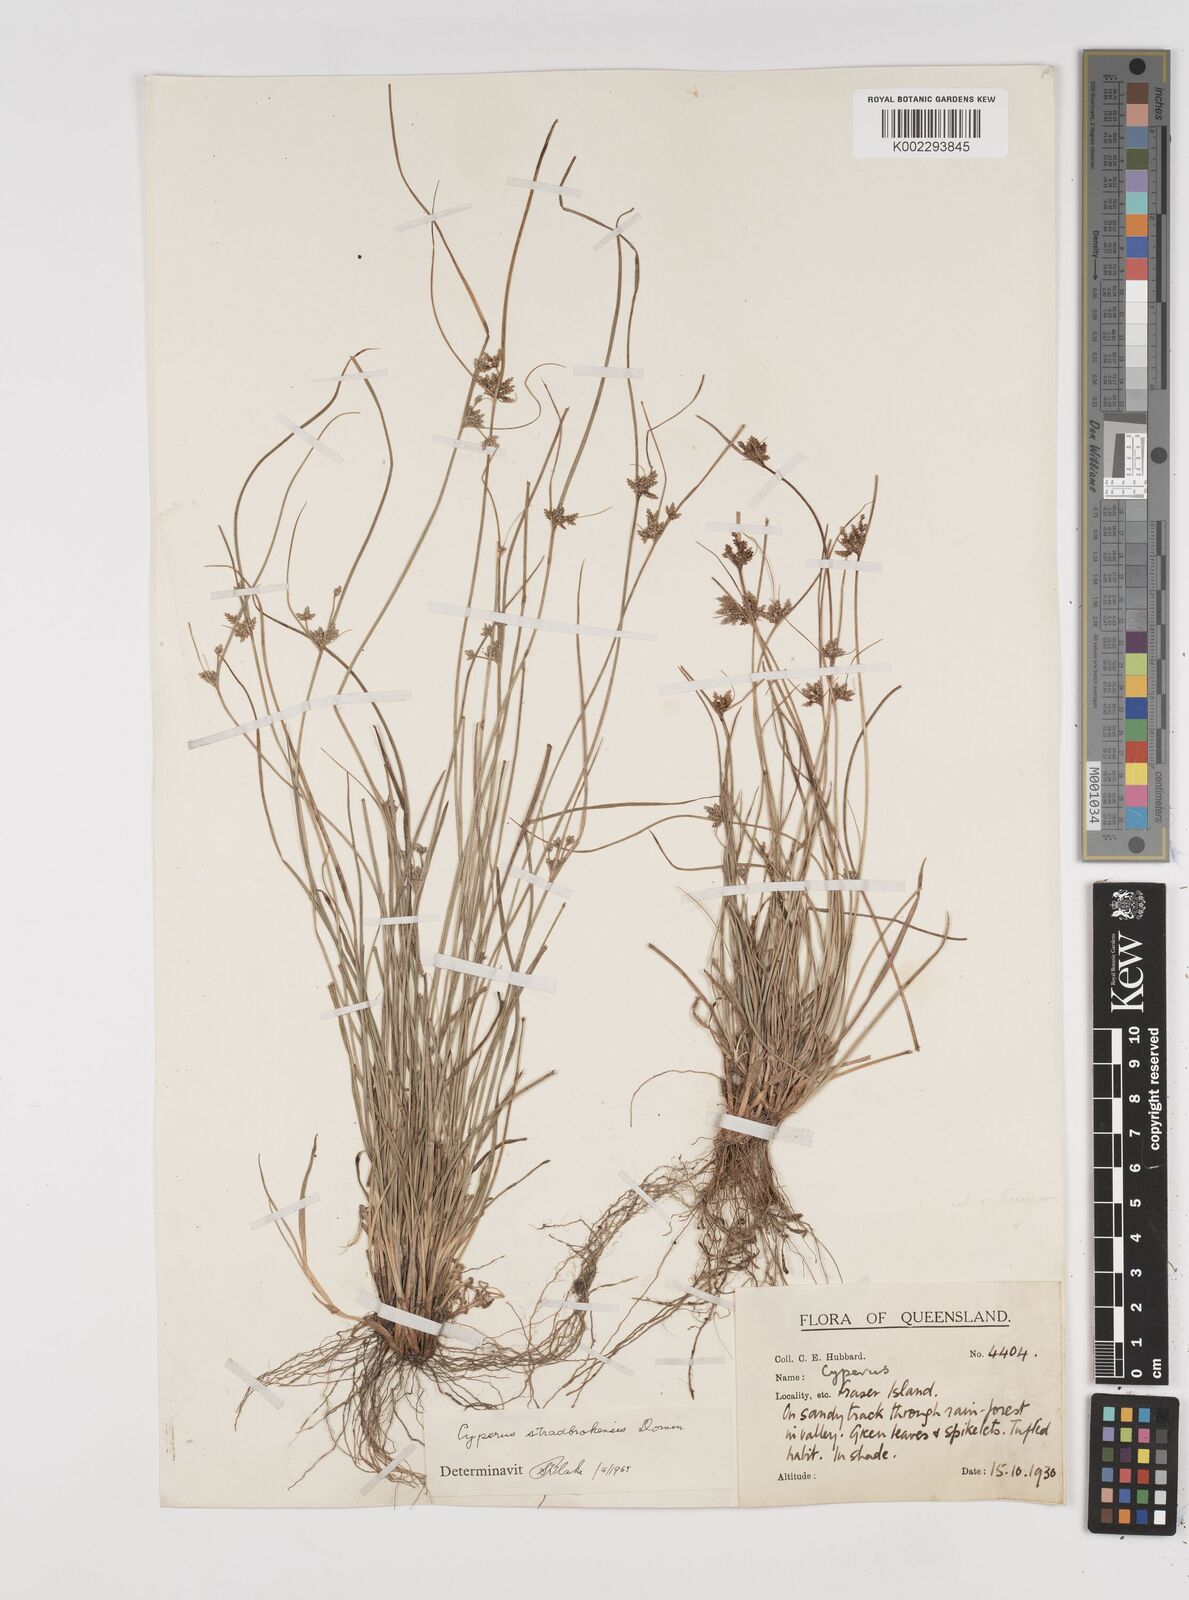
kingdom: Plantae
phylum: Tracheophyta
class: Liliopsida
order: Poales
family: Cyperaceae
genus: Cyperus
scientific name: Cyperus stradbrokensis
